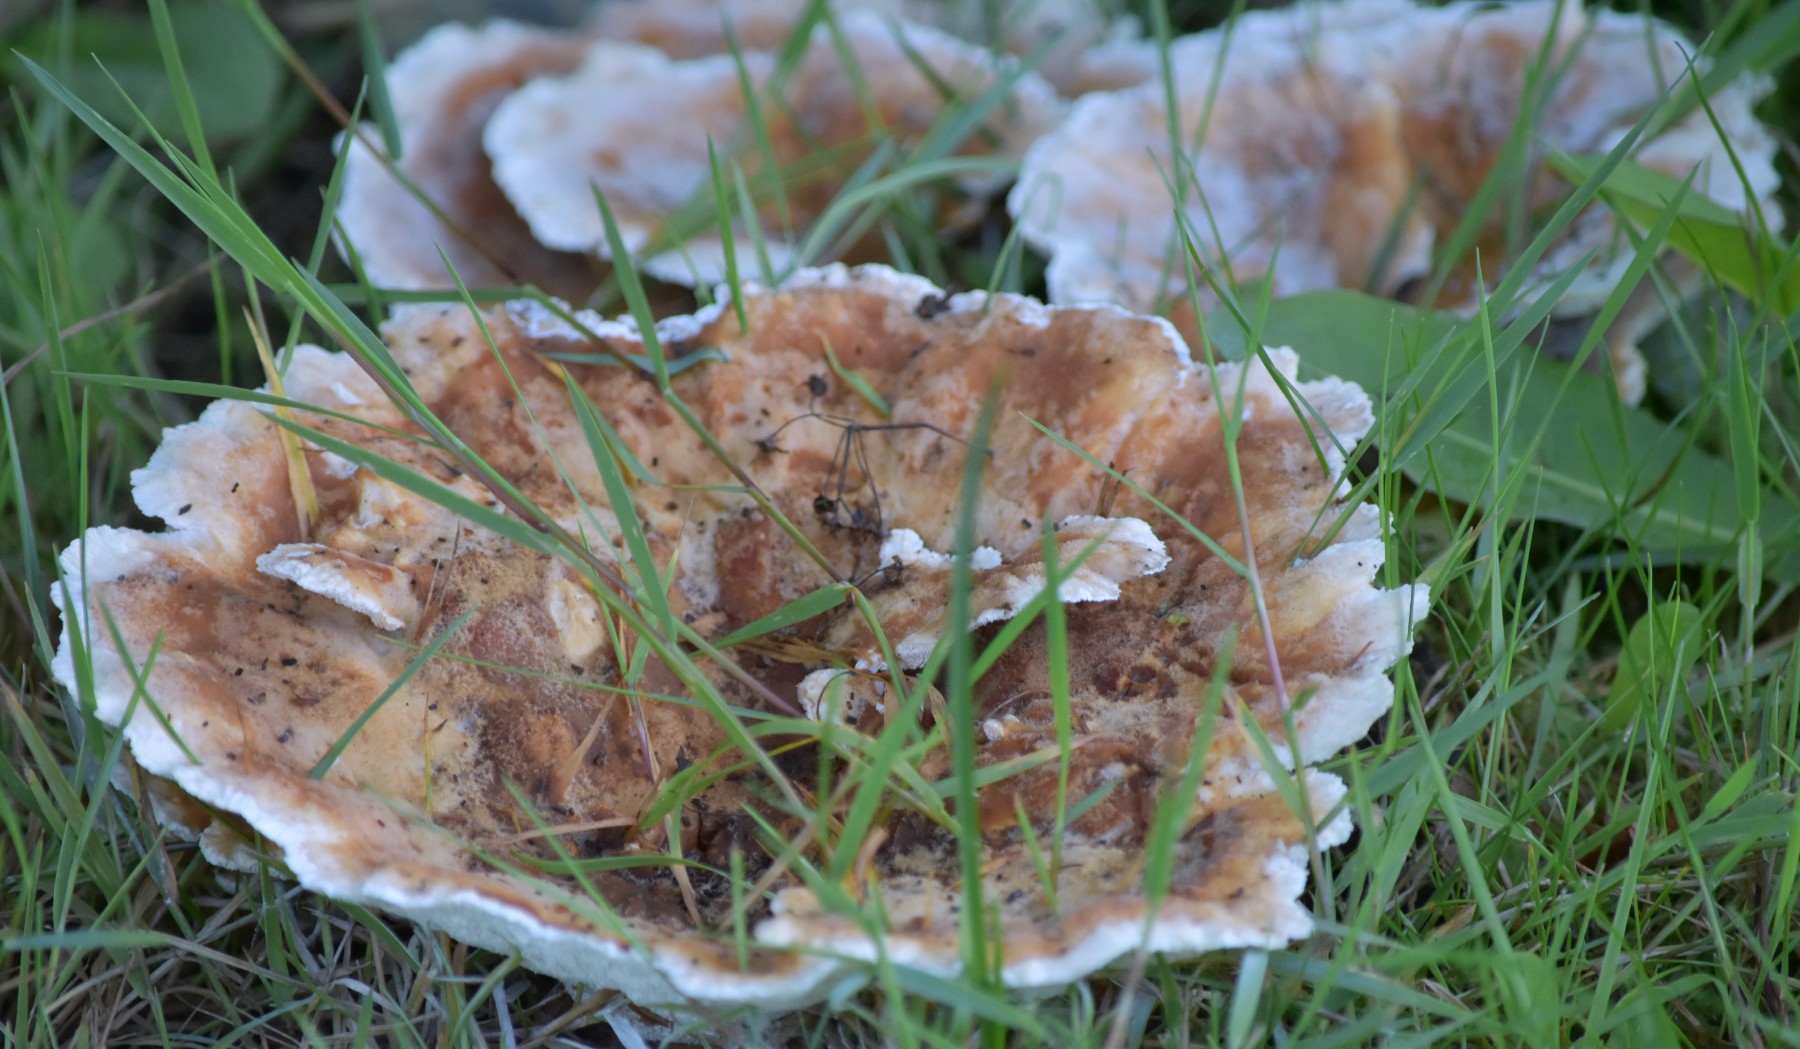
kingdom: Fungi
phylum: Basidiomycota
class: Agaricomycetes
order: Polyporales
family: Podoscyphaceae
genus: Abortiporus
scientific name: Abortiporus biennis
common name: rødmende pjalteporesvamp
